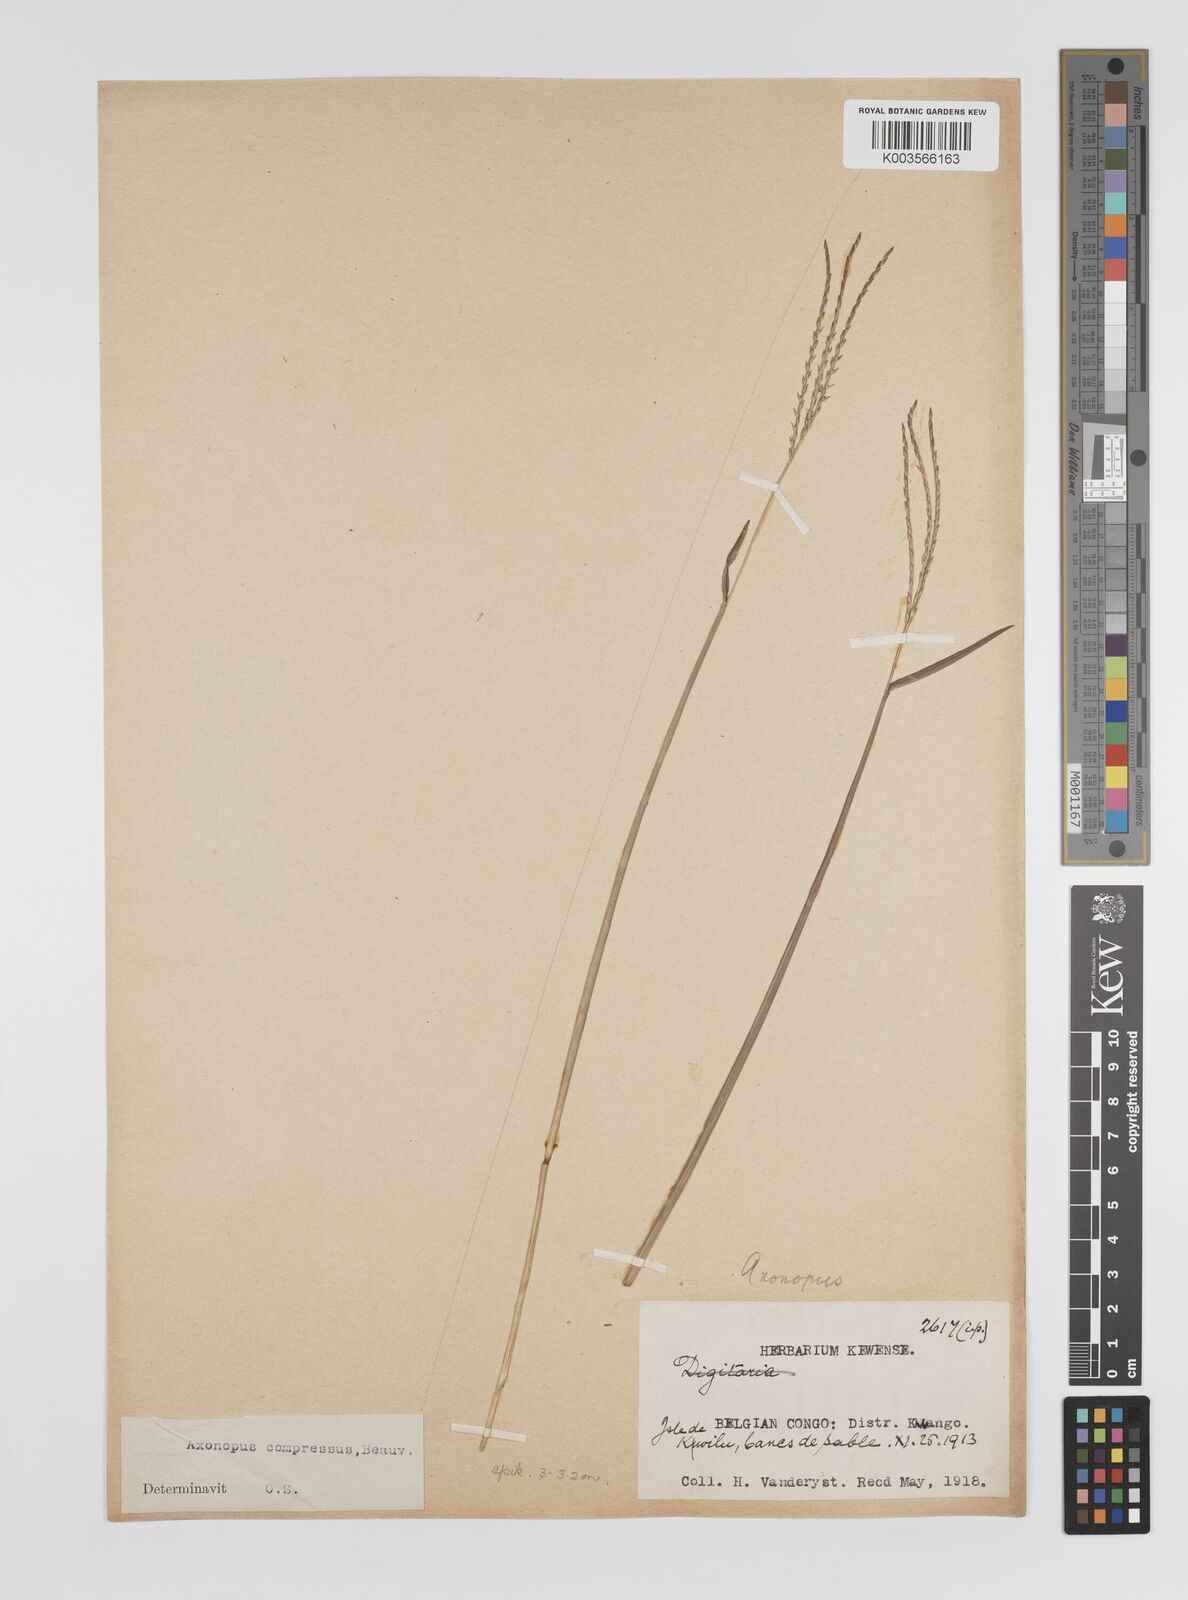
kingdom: Plantae
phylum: Tracheophyta
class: Liliopsida
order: Poales
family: Poaceae
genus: Axonopus
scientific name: Axonopus flexuosus
